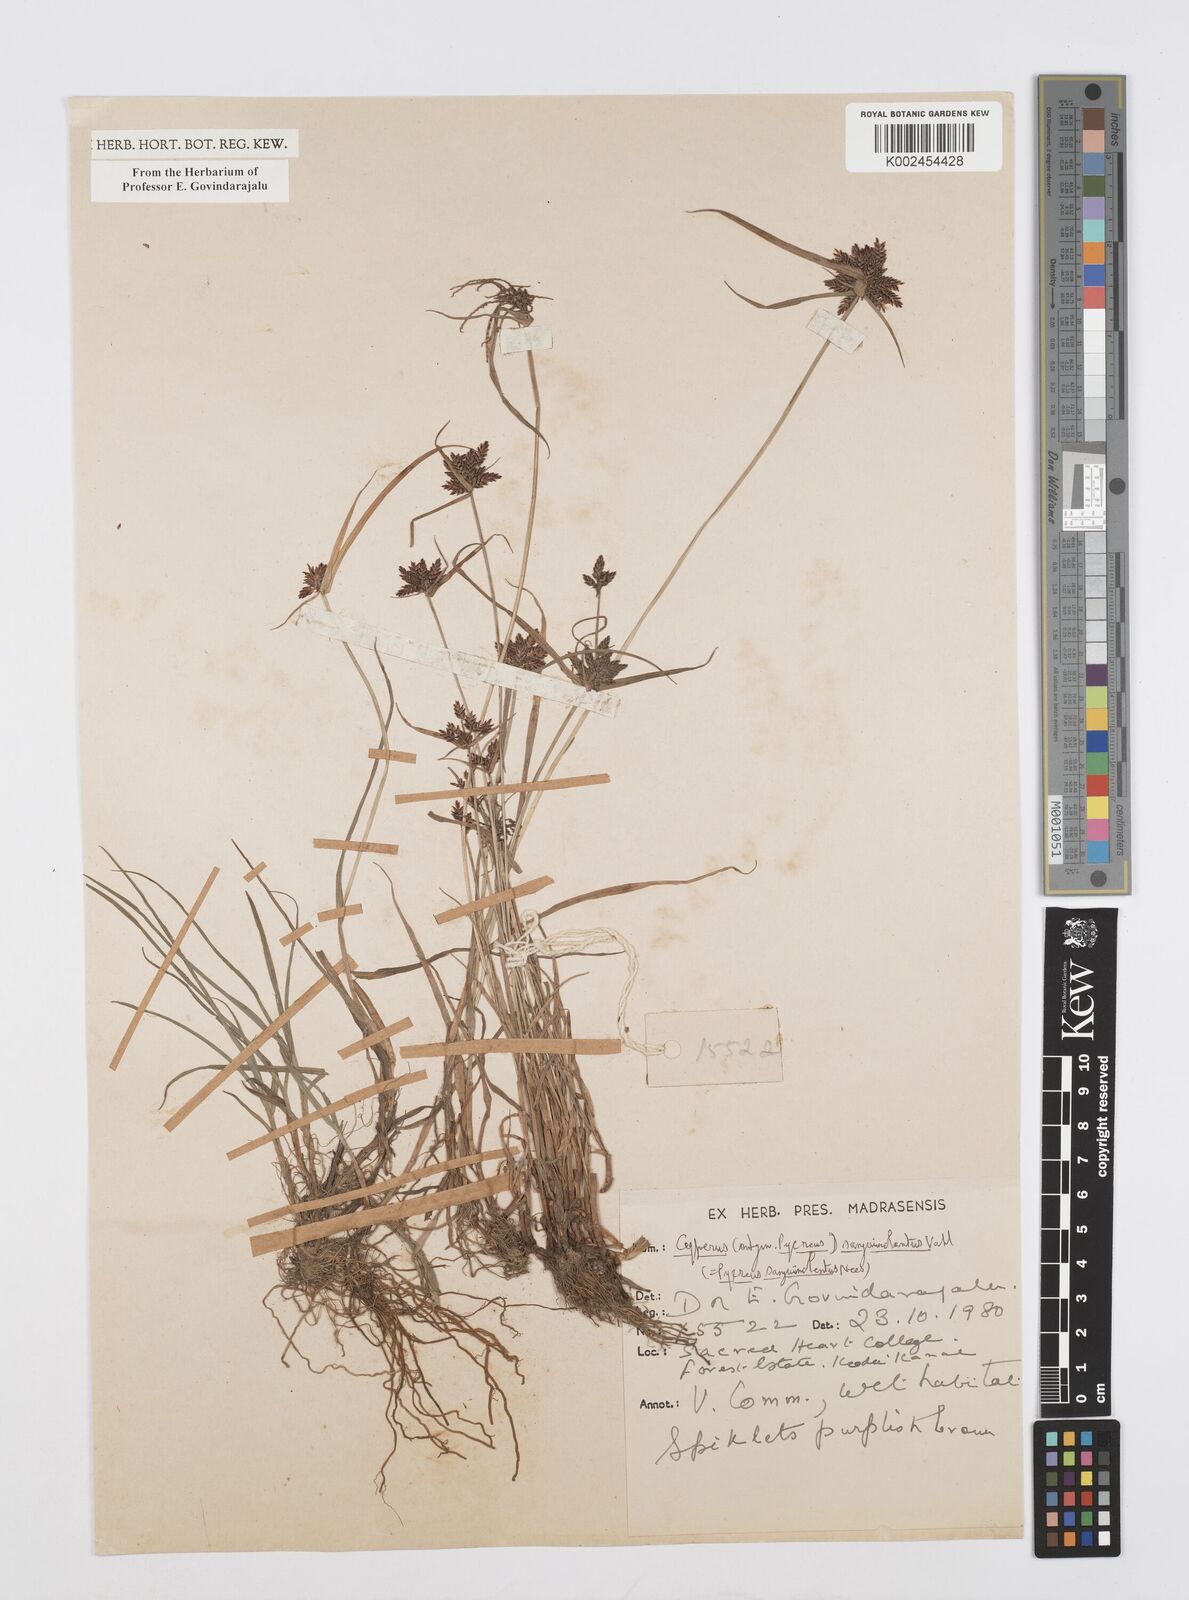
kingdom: Plantae
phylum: Tracheophyta
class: Liliopsida
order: Poales
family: Cyperaceae
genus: Cyperus
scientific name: Cyperus sanguinolentus
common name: Purpleglume flatsedge
